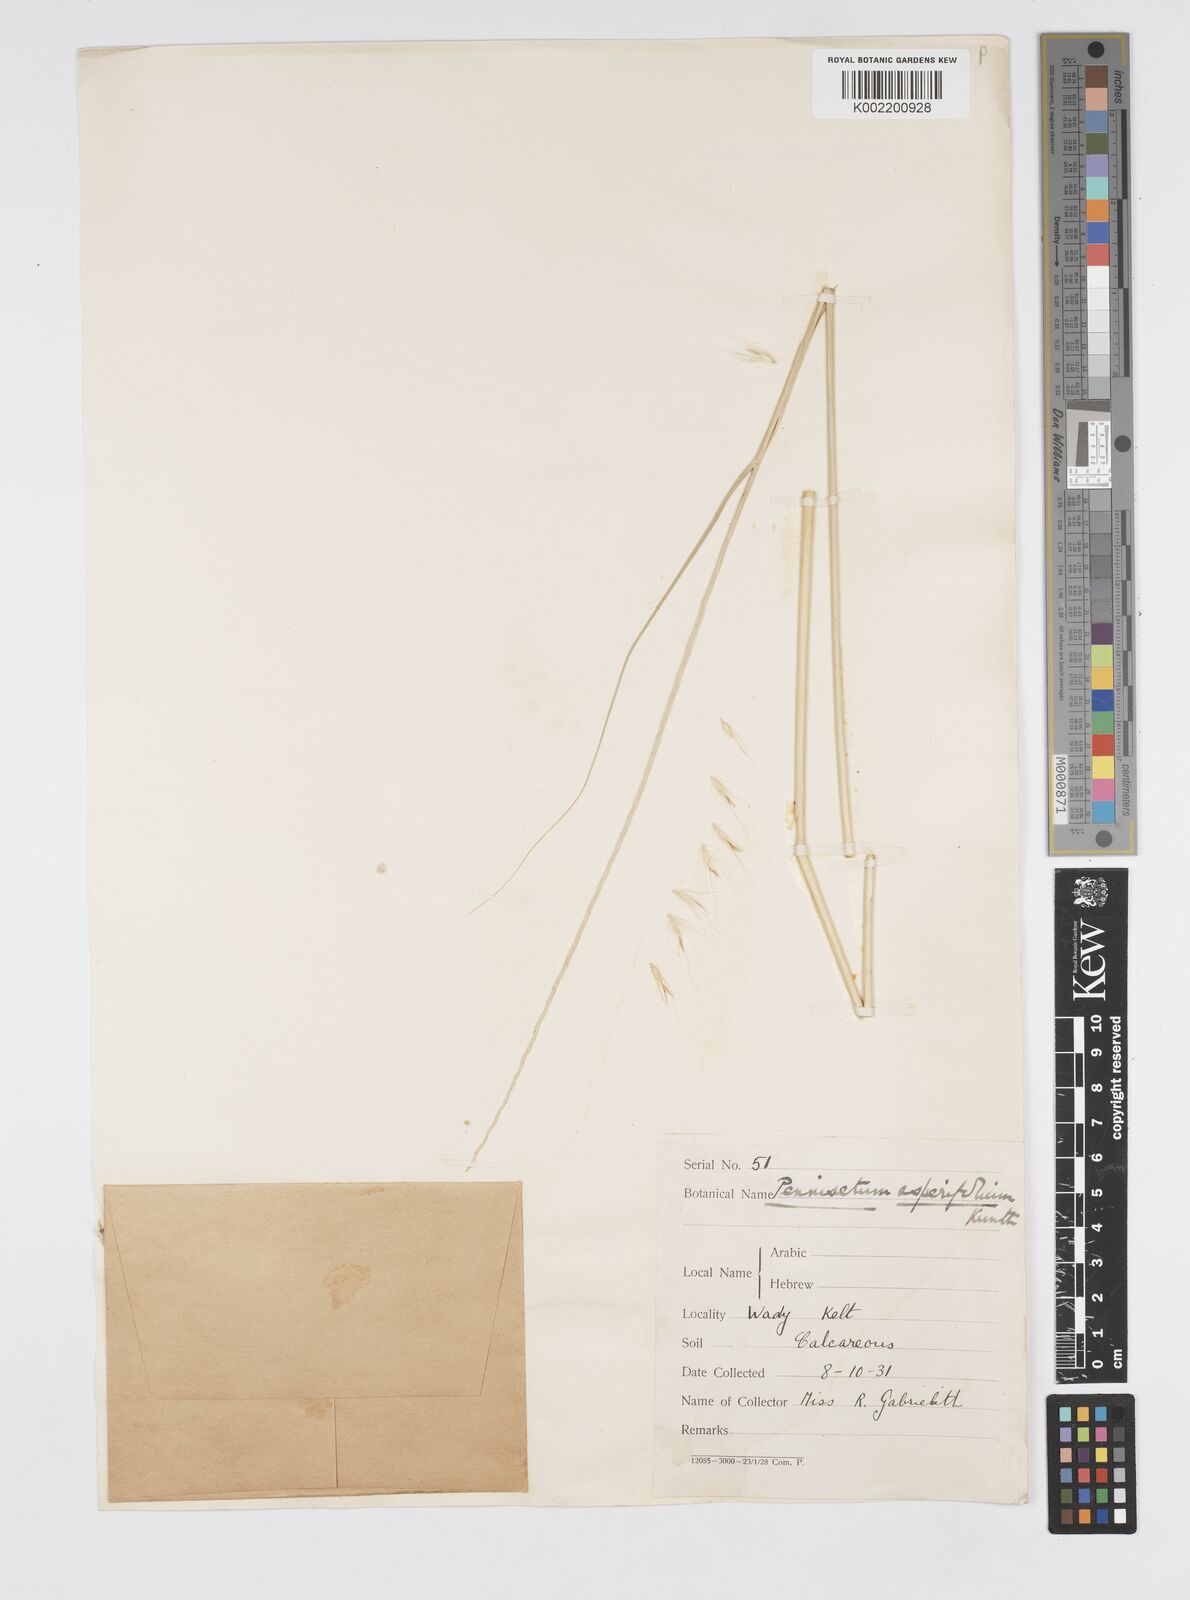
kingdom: Plantae
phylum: Tracheophyta
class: Liliopsida
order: Poales
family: Poaceae
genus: Cenchrus
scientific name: Cenchrus setaceus
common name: Crimson fountaingrass
